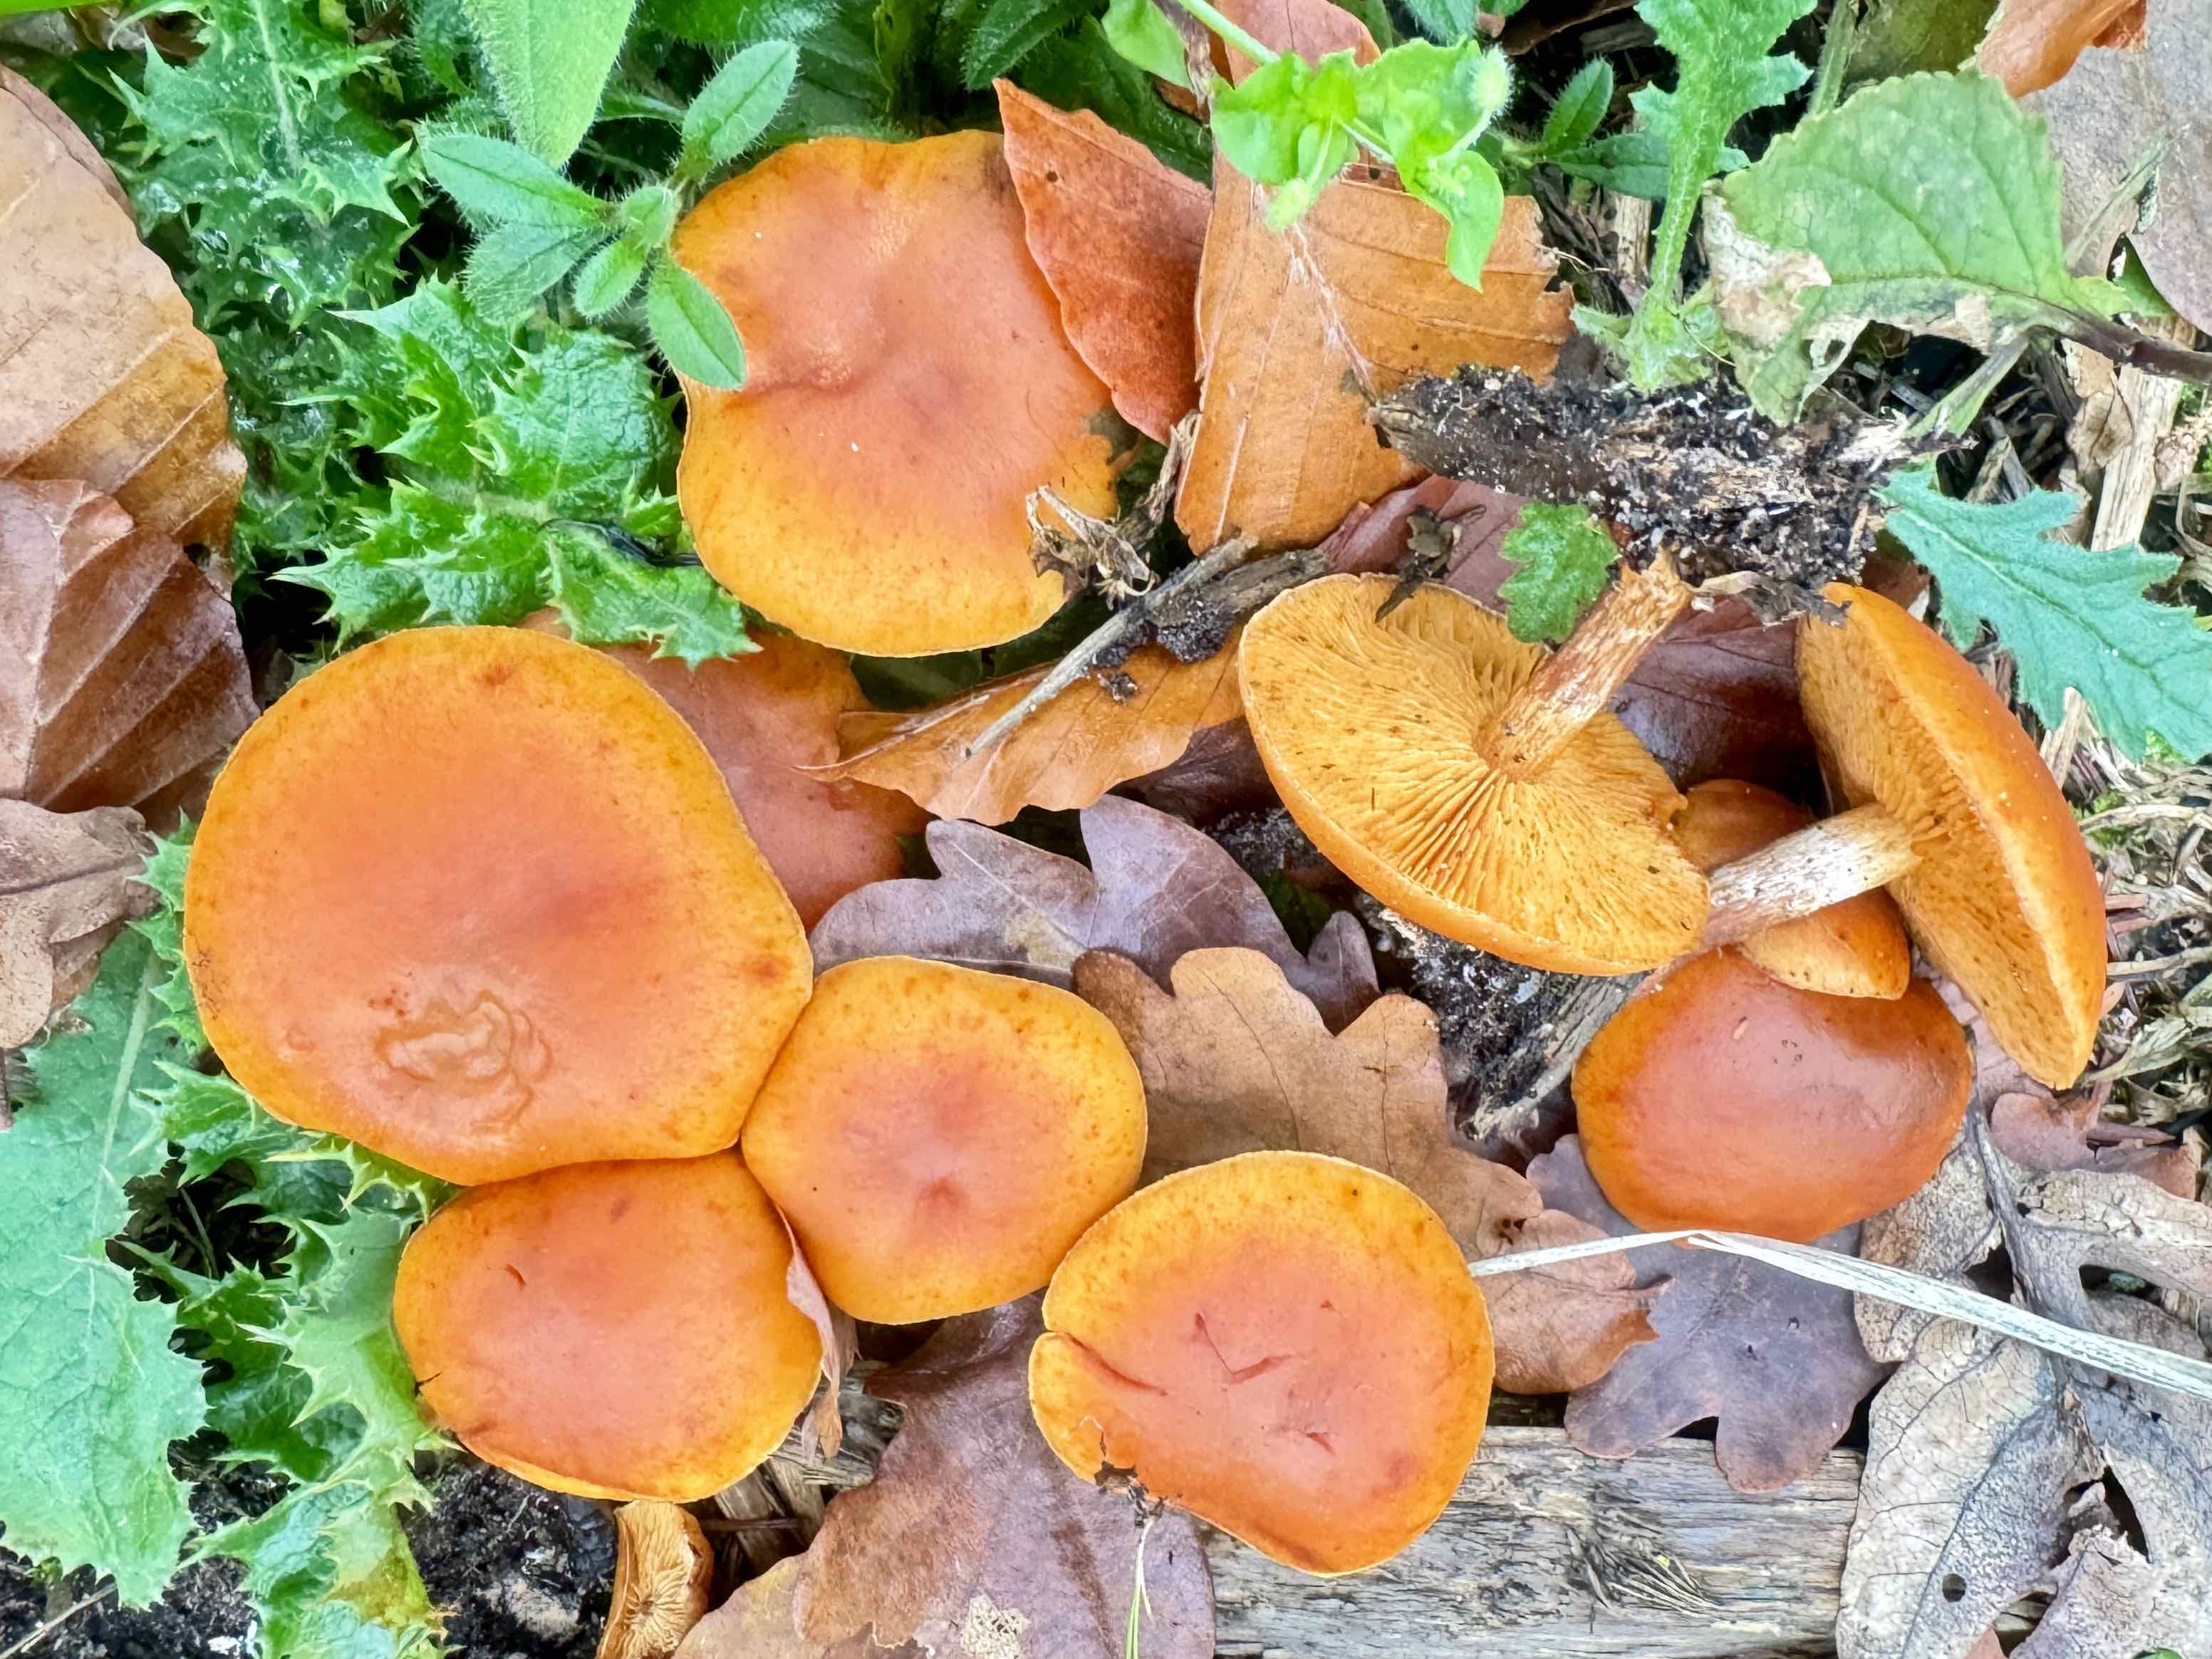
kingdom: Fungi
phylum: Basidiomycota
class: Agaricomycetes
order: Agaricales
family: Hymenogastraceae
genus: Gymnopilus
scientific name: Gymnopilus penetrans
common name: plettet flammehat
